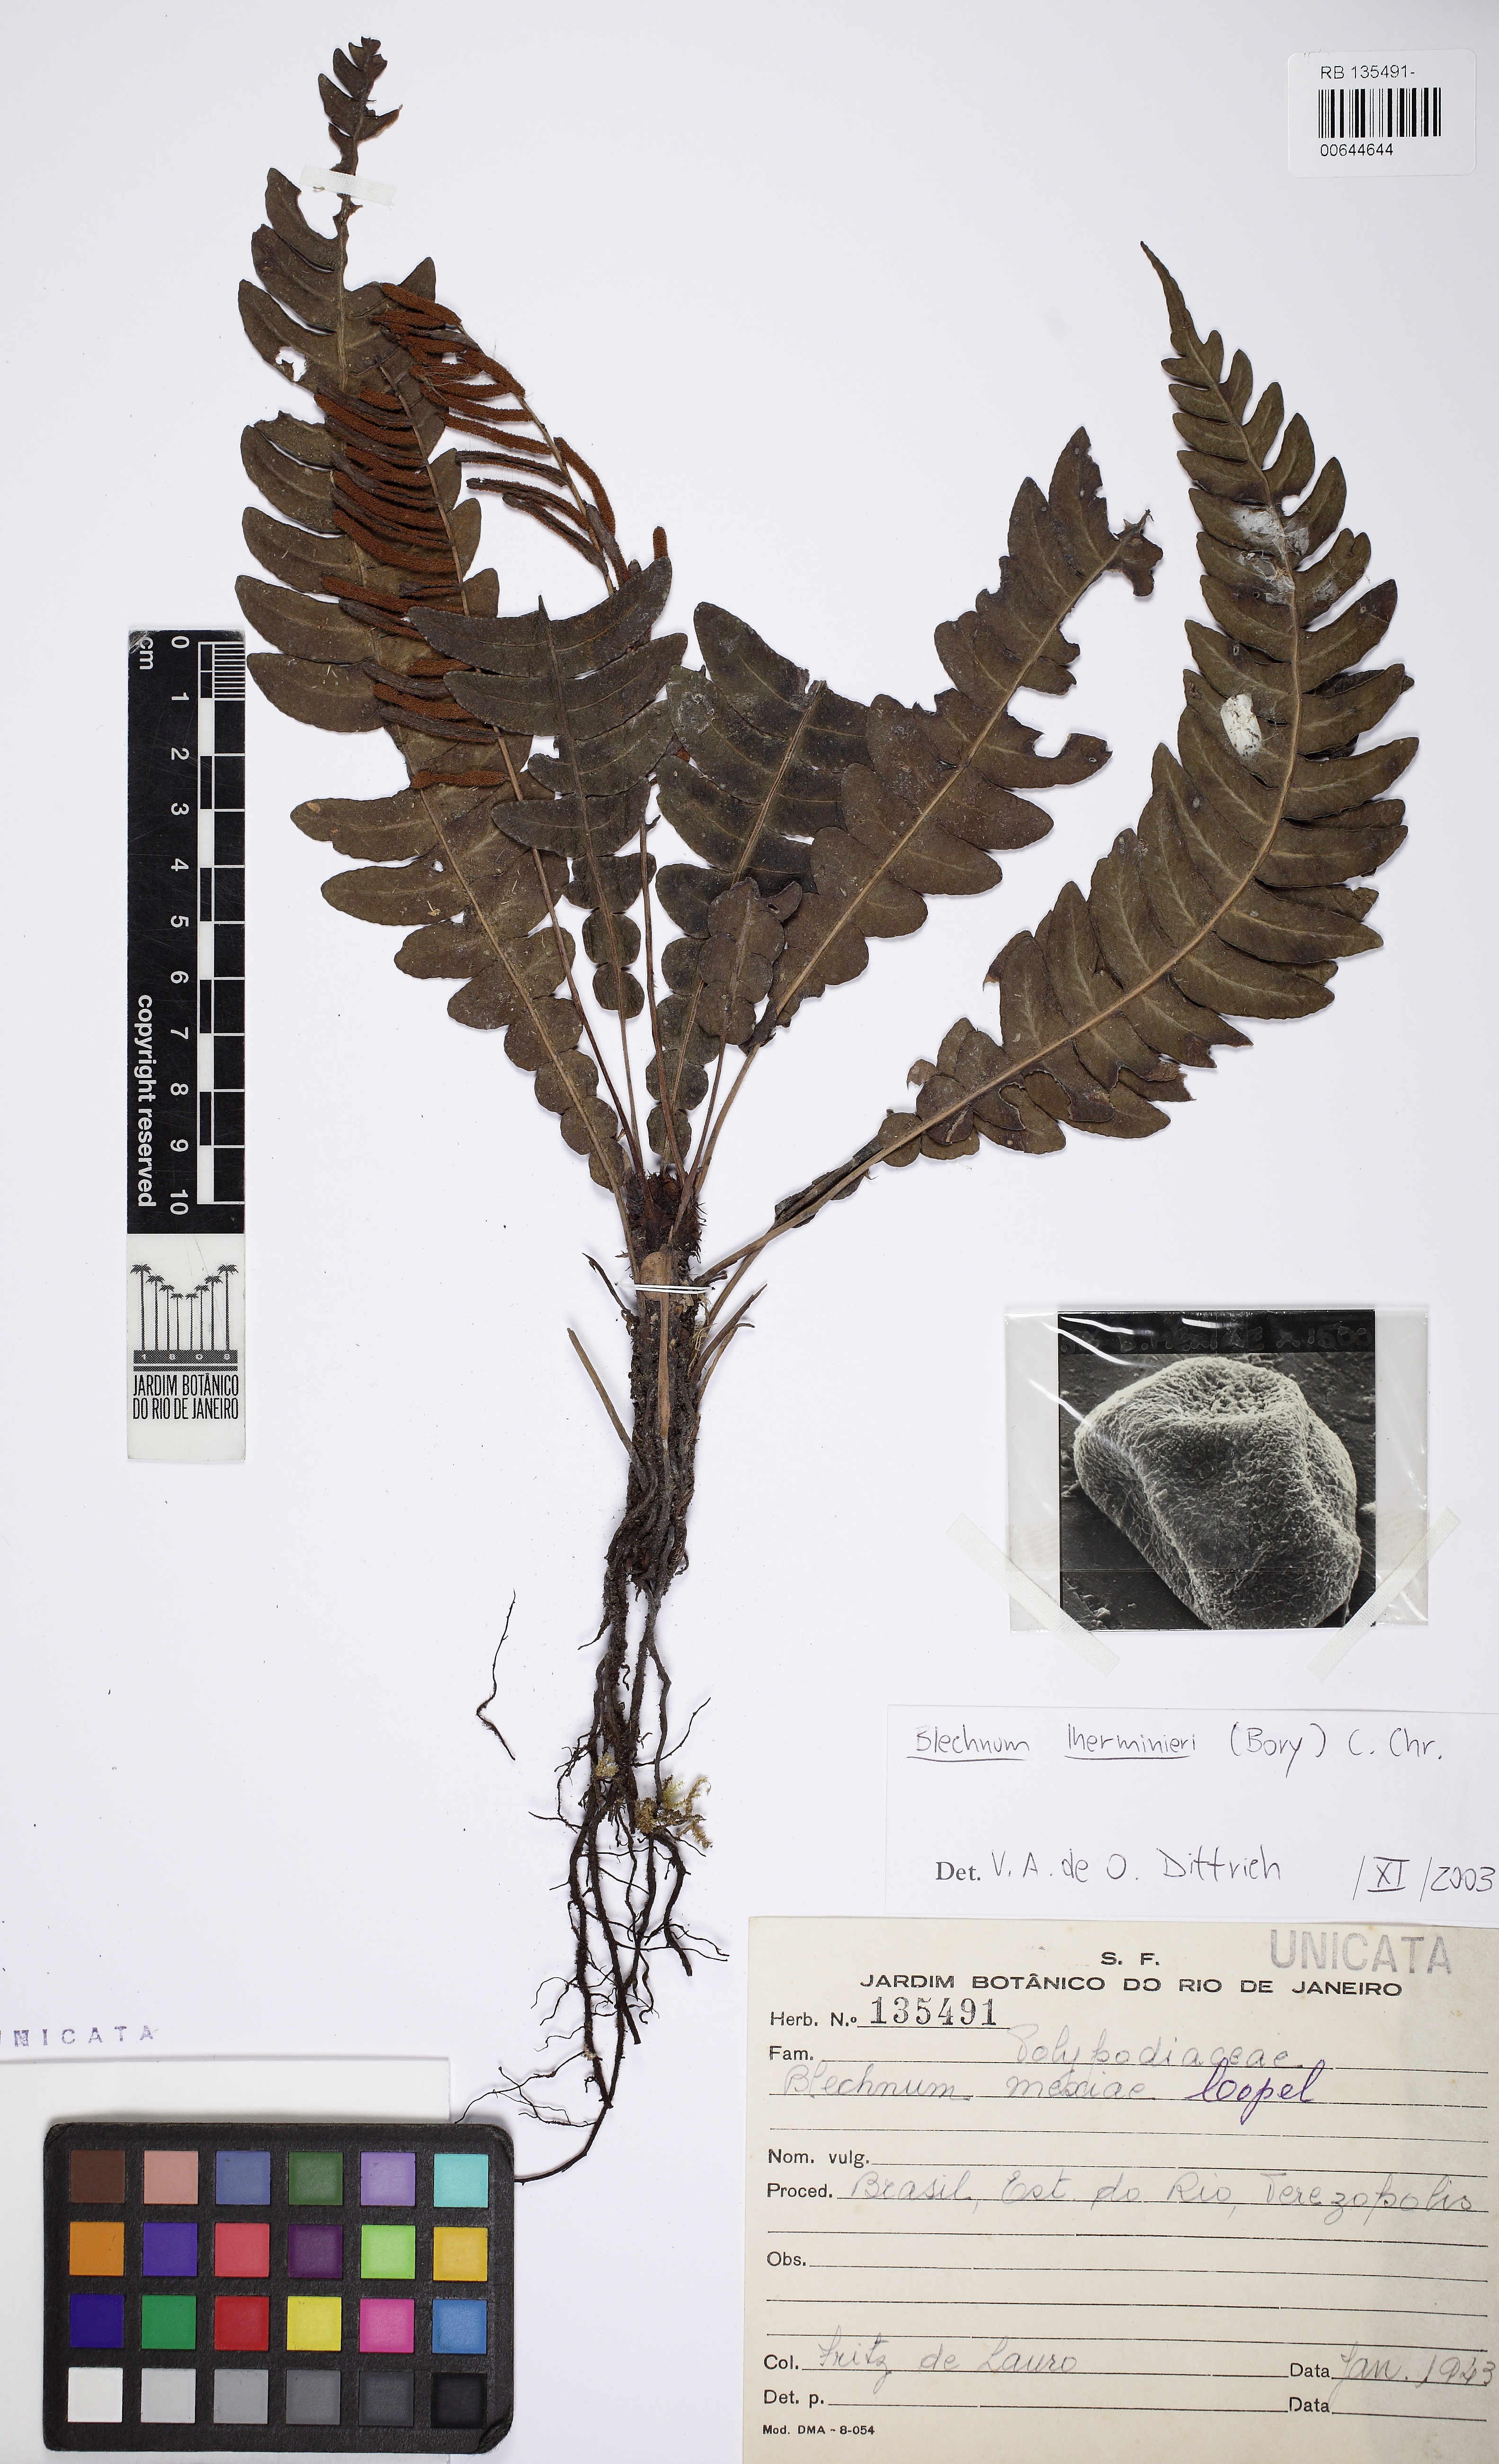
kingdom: Plantae
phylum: Tracheophyta
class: Polypodiopsida
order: Polypodiales
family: Blechnaceae
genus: Austroblechnum
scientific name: Austroblechnum lehmannii
